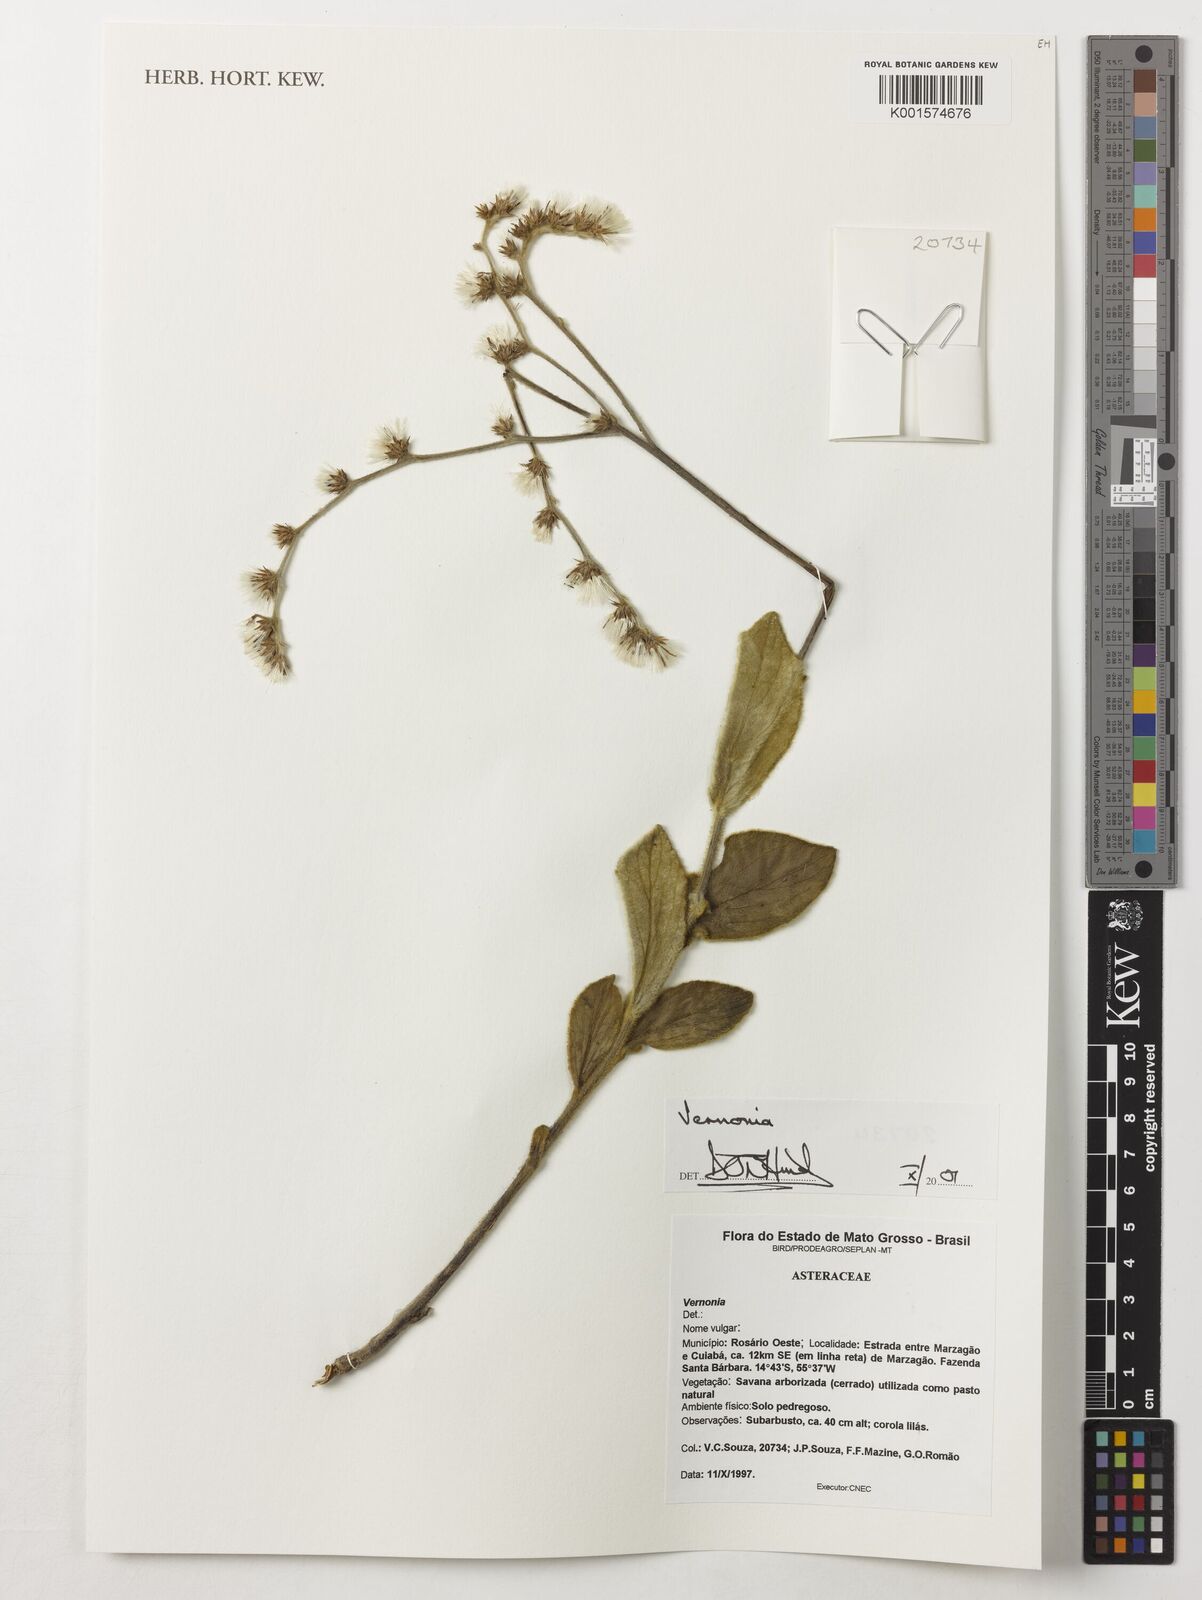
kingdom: Plantae
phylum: Tracheophyta
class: Magnoliopsida
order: Asterales
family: Asteraceae
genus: Vernonia
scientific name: Vernonia
